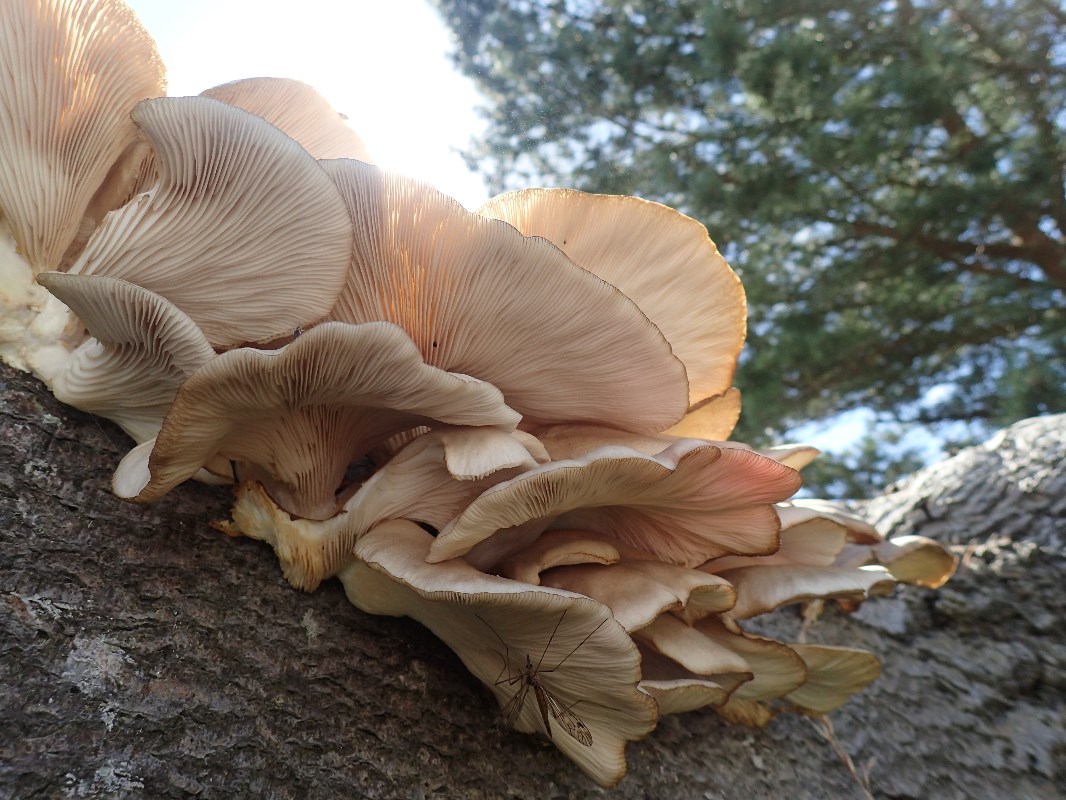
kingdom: Fungi
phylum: Basidiomycota
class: Agaricomycetes
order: Agaricales
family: Pleurotaceae
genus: Pleurotus
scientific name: Pleurotus pulmonarius
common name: sommer-østershat
